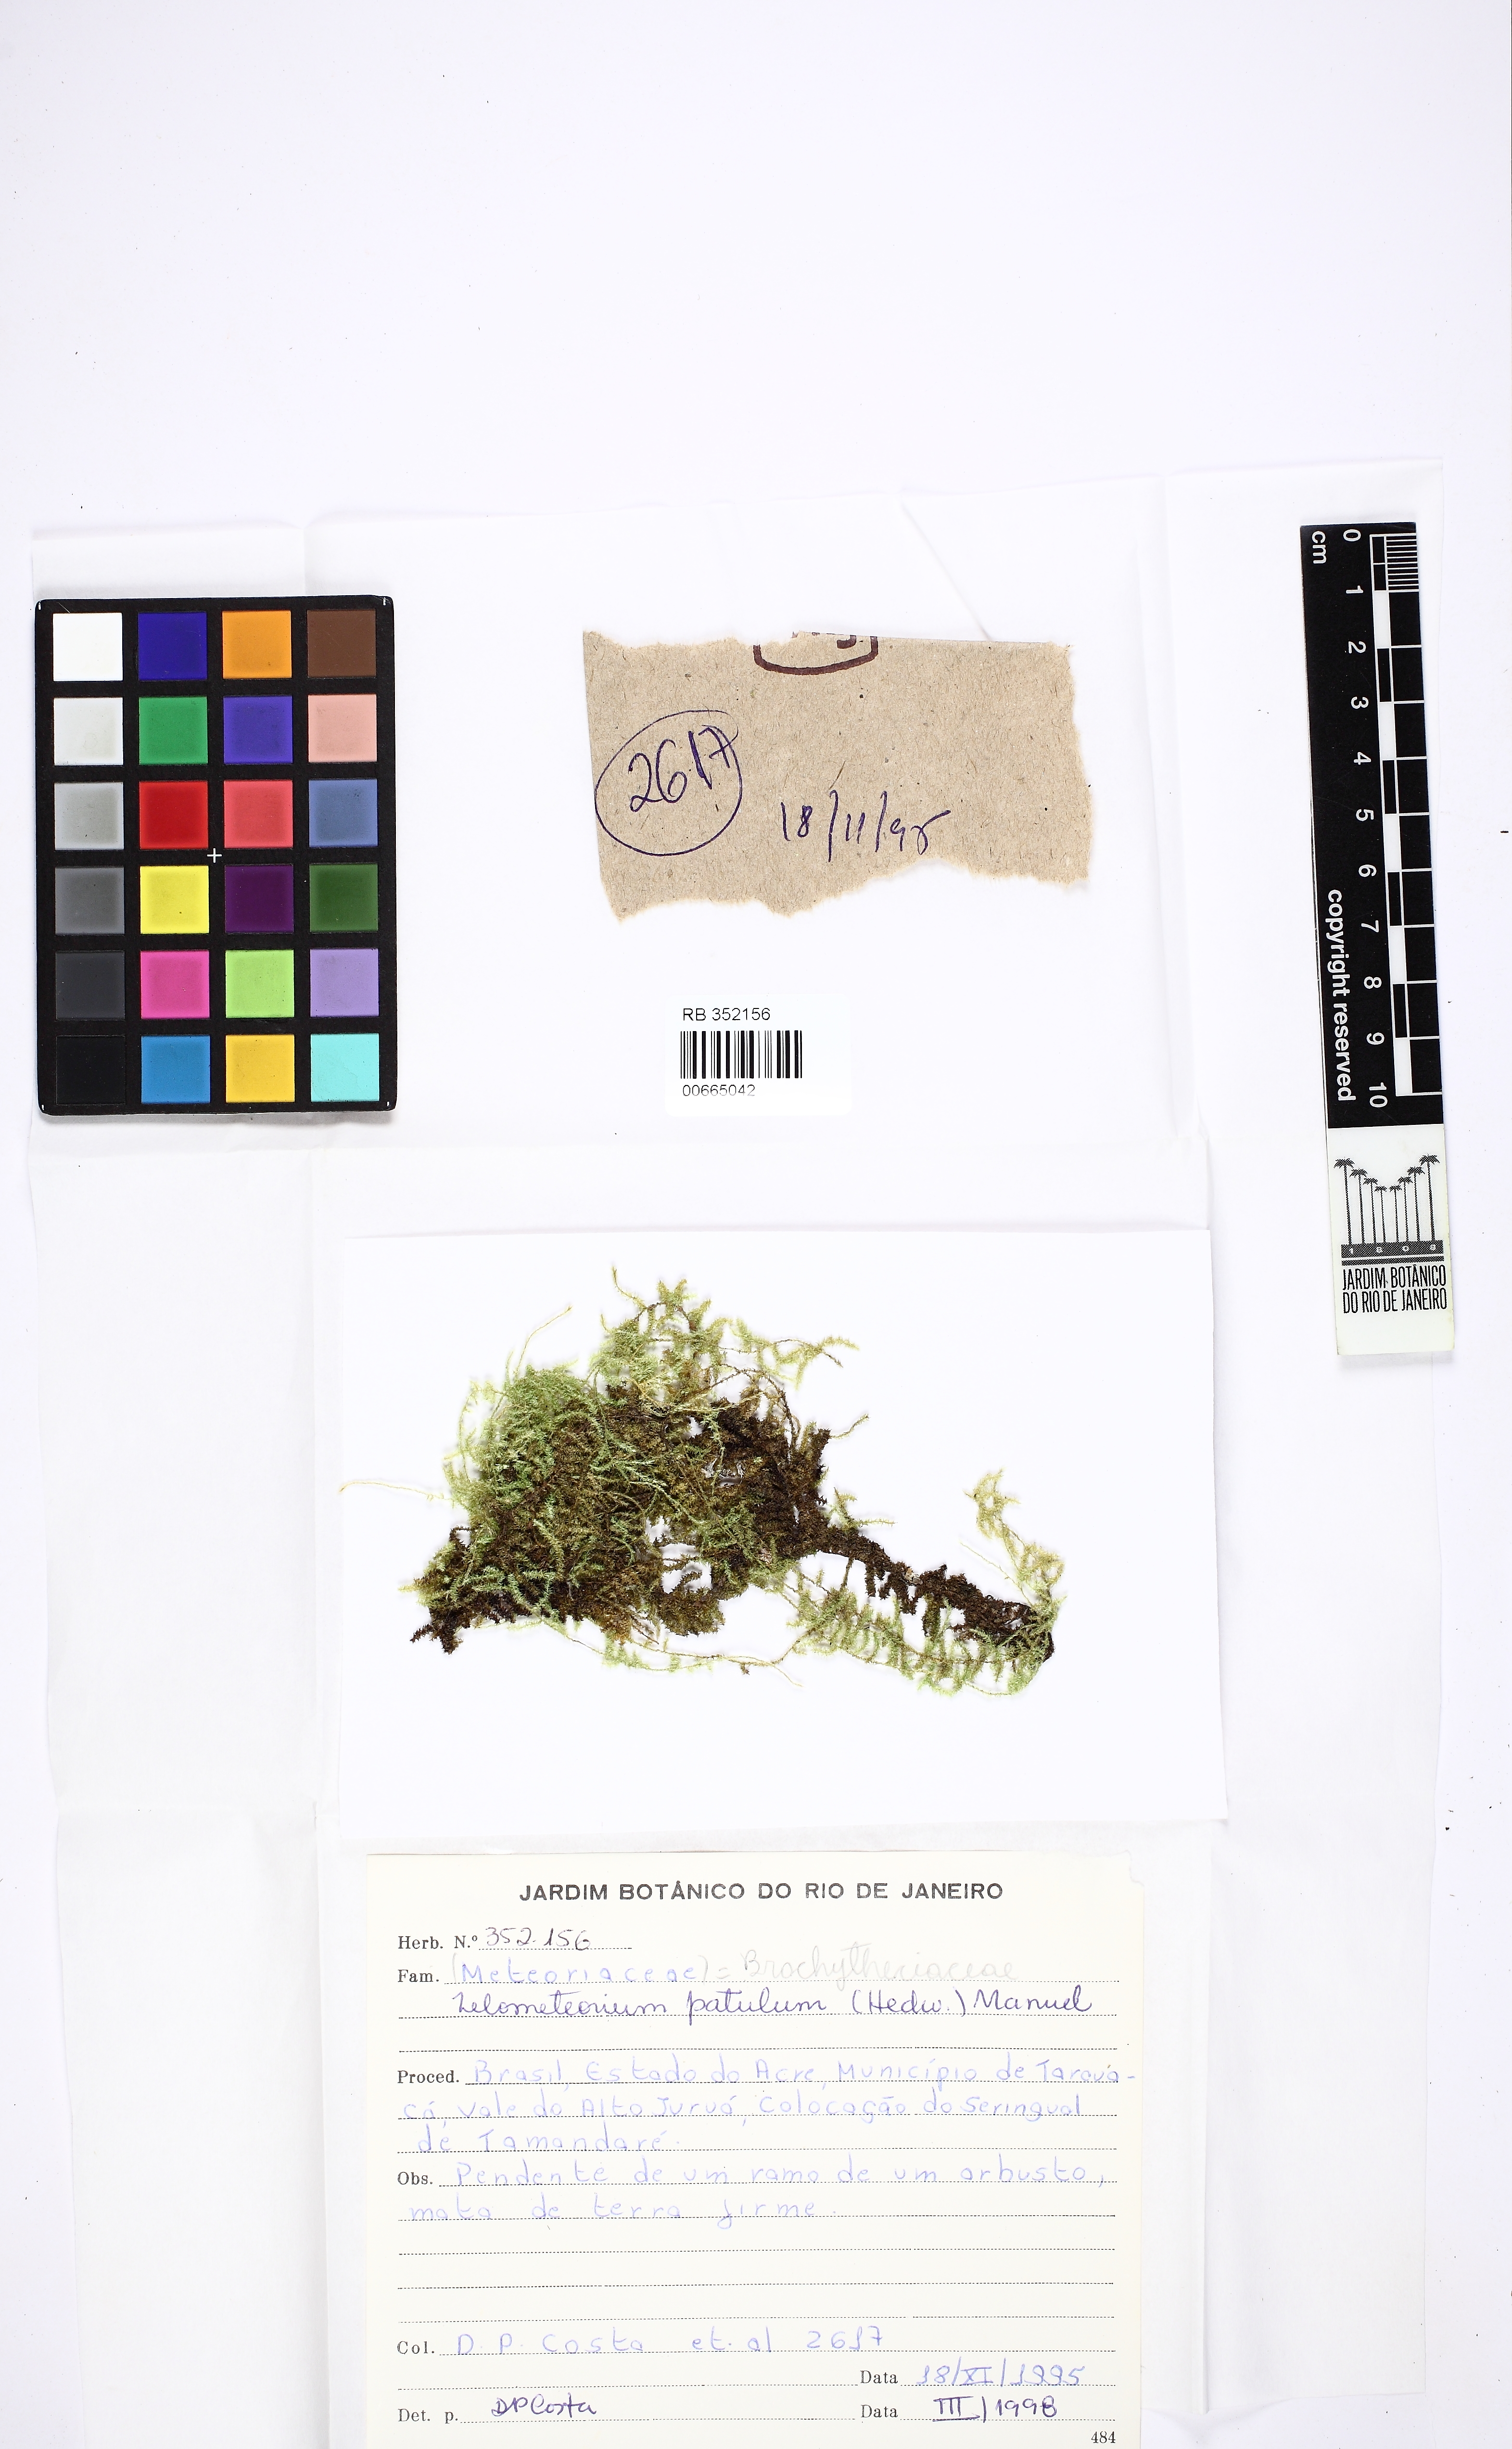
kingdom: Plantae
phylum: Bryophyta
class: Bryopsida
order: Hypnales
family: Brachytheciaceae
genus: Zelometeorium
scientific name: Zelometeorium patulum
